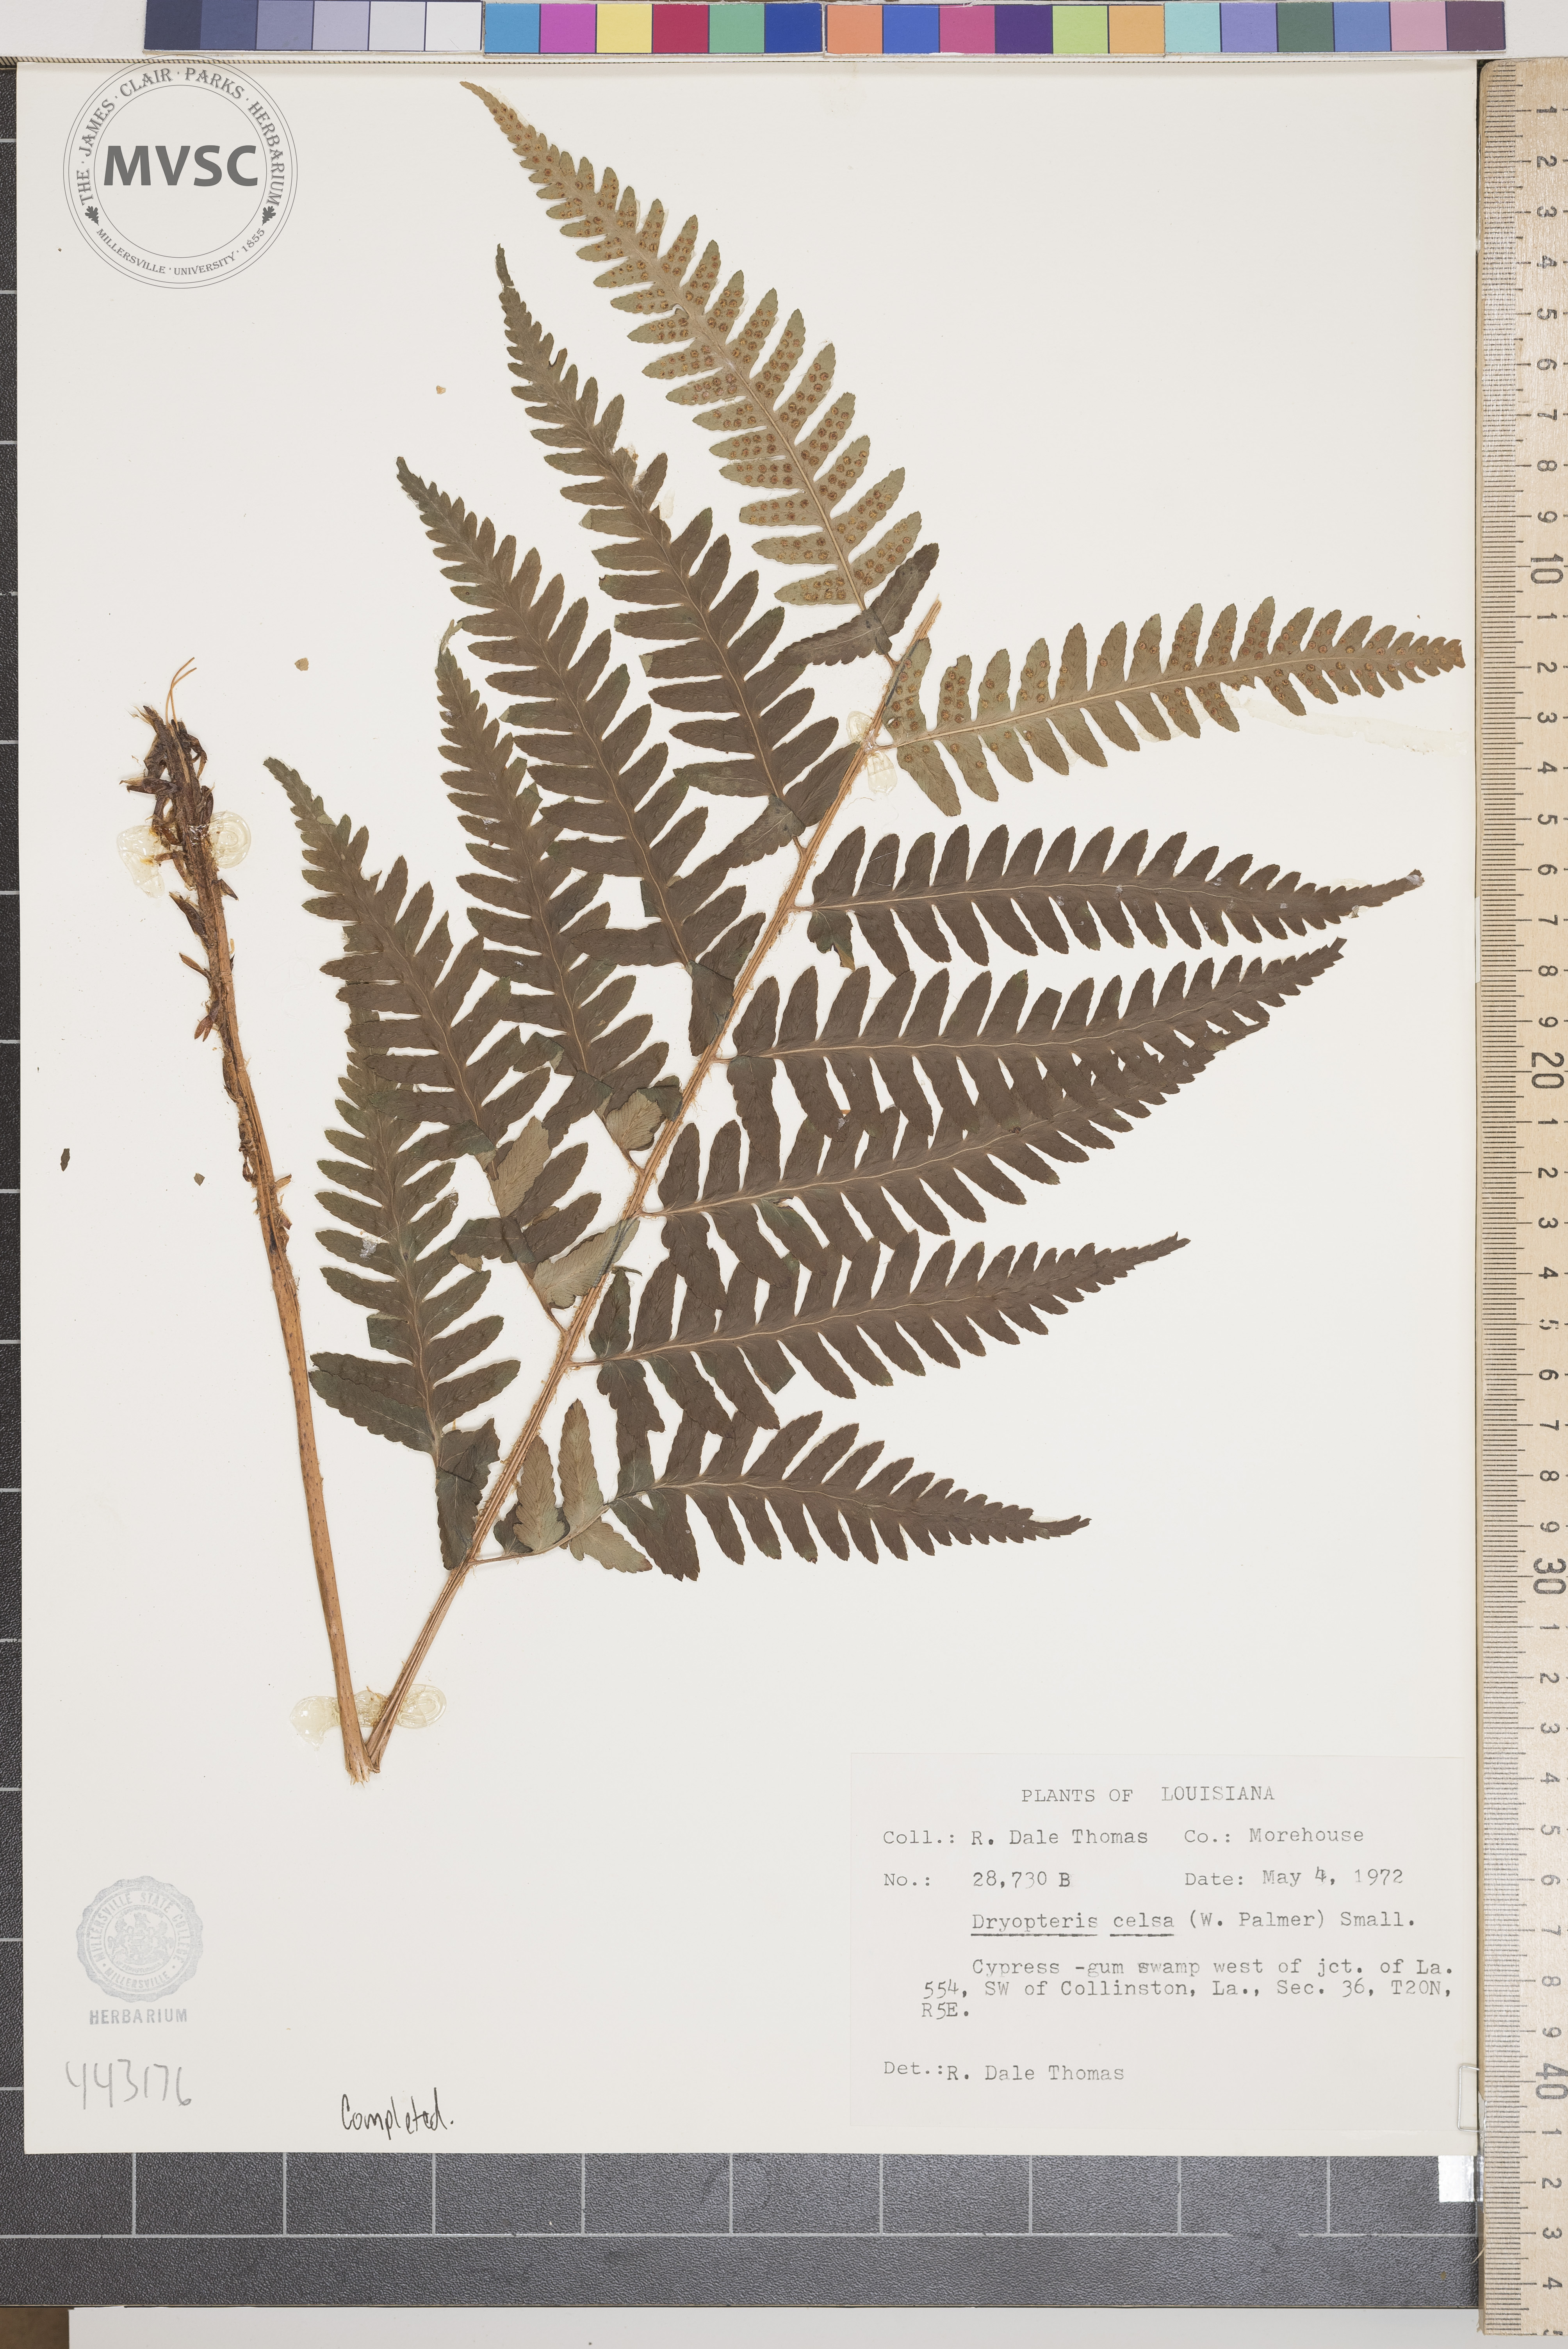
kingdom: Plantae
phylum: Tracheophyta
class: Polypodiopsida
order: Polypodiales
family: Dryopteridaceae
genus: Dryopteris
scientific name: Dryopteris celsa
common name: Log fern
